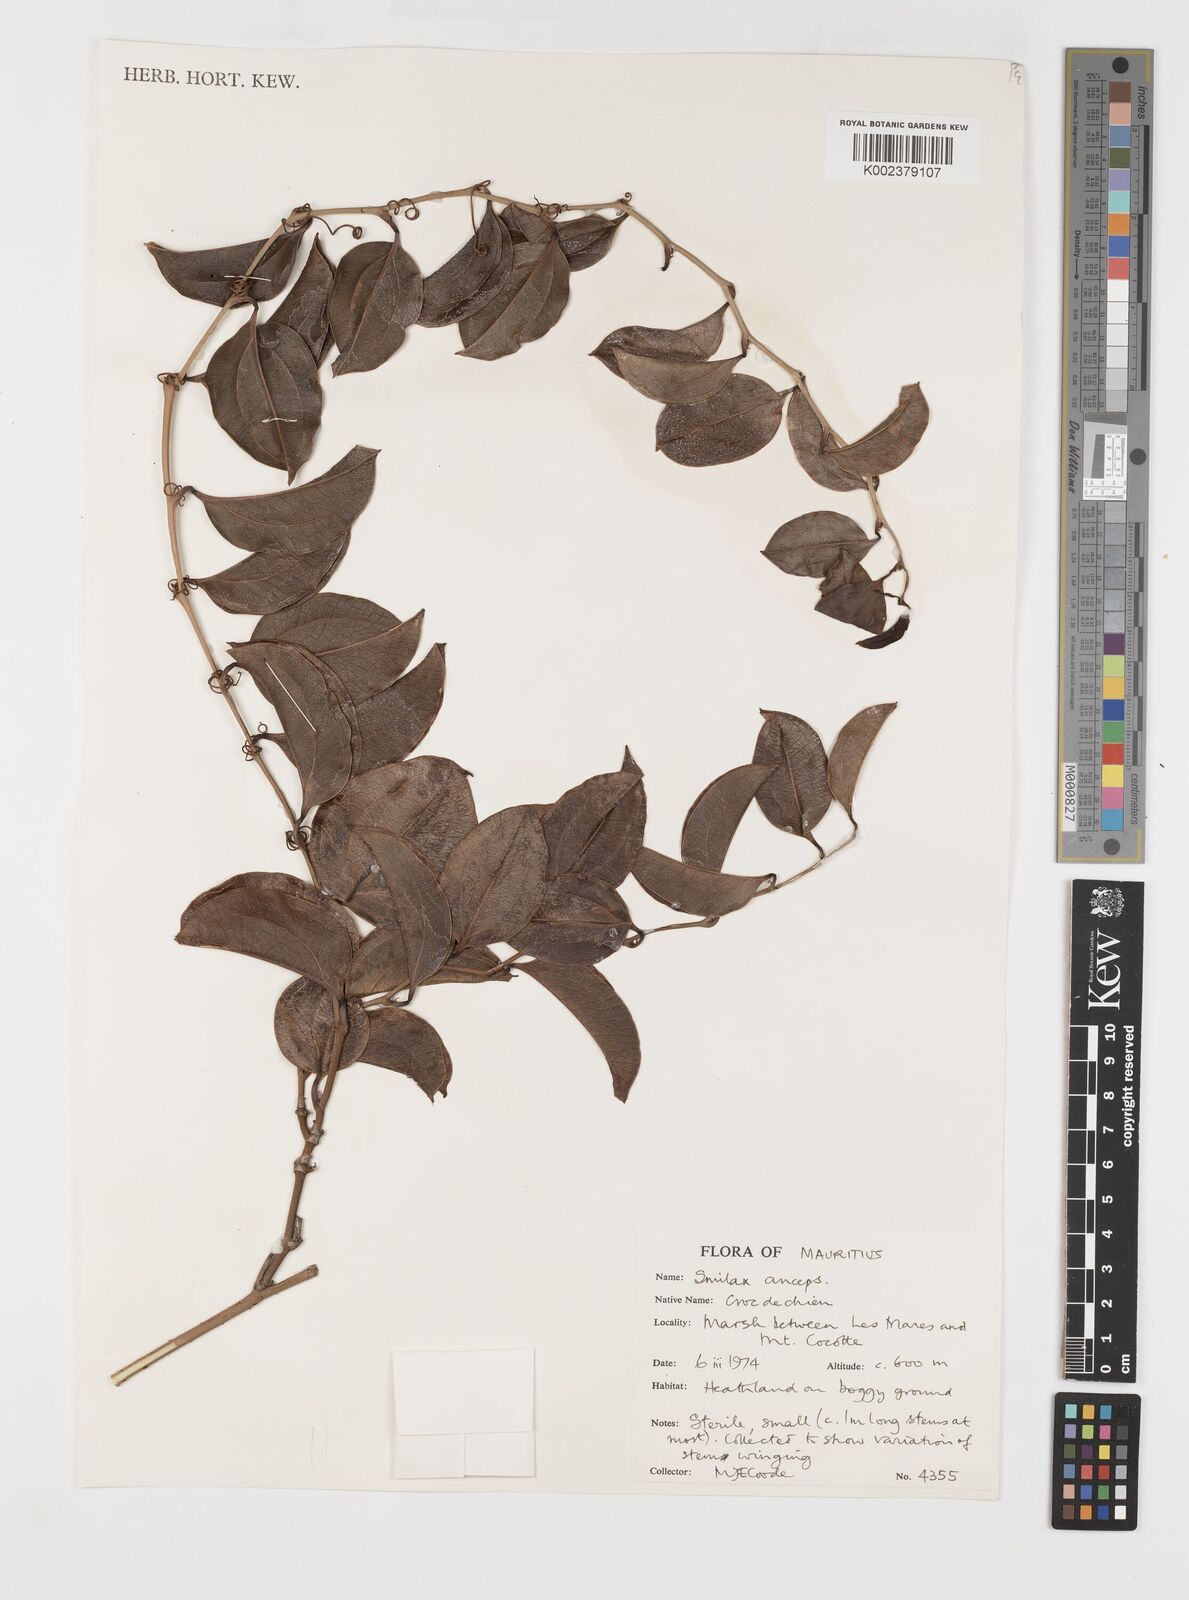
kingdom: Plantae
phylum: Tracheophyta
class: Liliopsida
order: Liliales
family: Smilacaceae
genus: Smilax
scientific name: Smilax anceps
